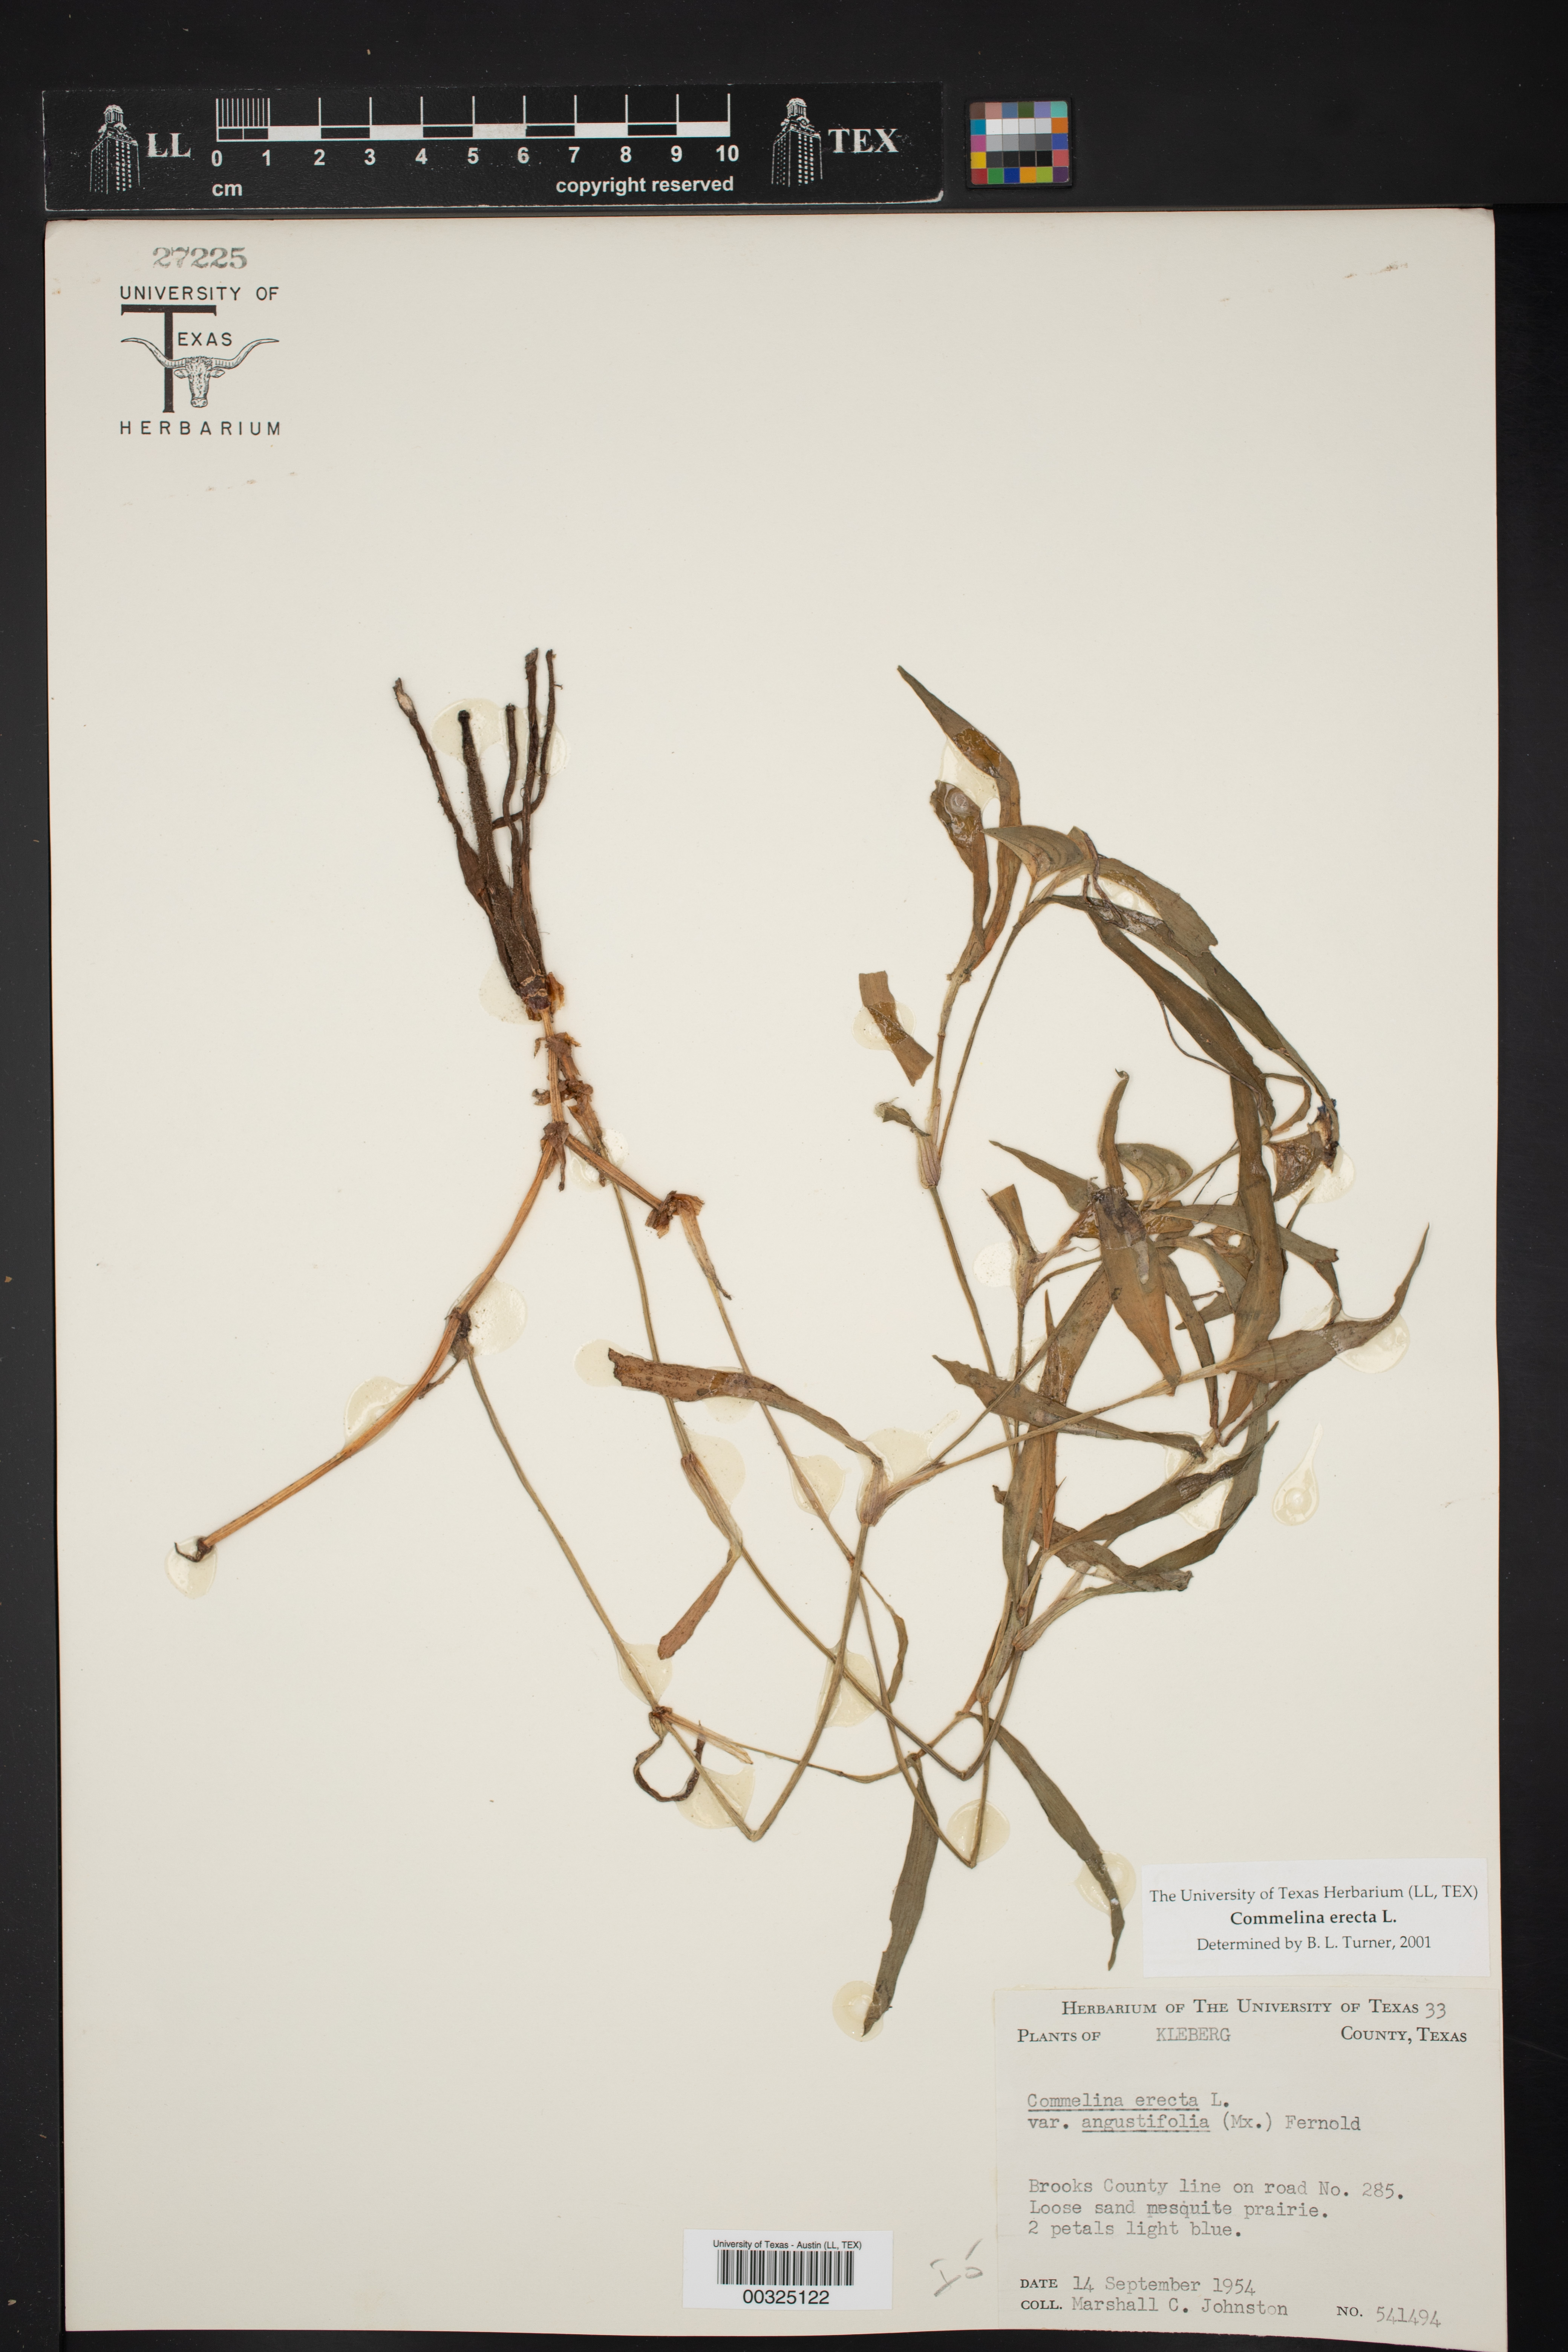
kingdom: Plantae
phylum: Tracheophyta
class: Liliopsida
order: Commelinales
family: Commelinaceae
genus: Commelina
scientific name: Commelina erecta
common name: Blousel blommetjie
